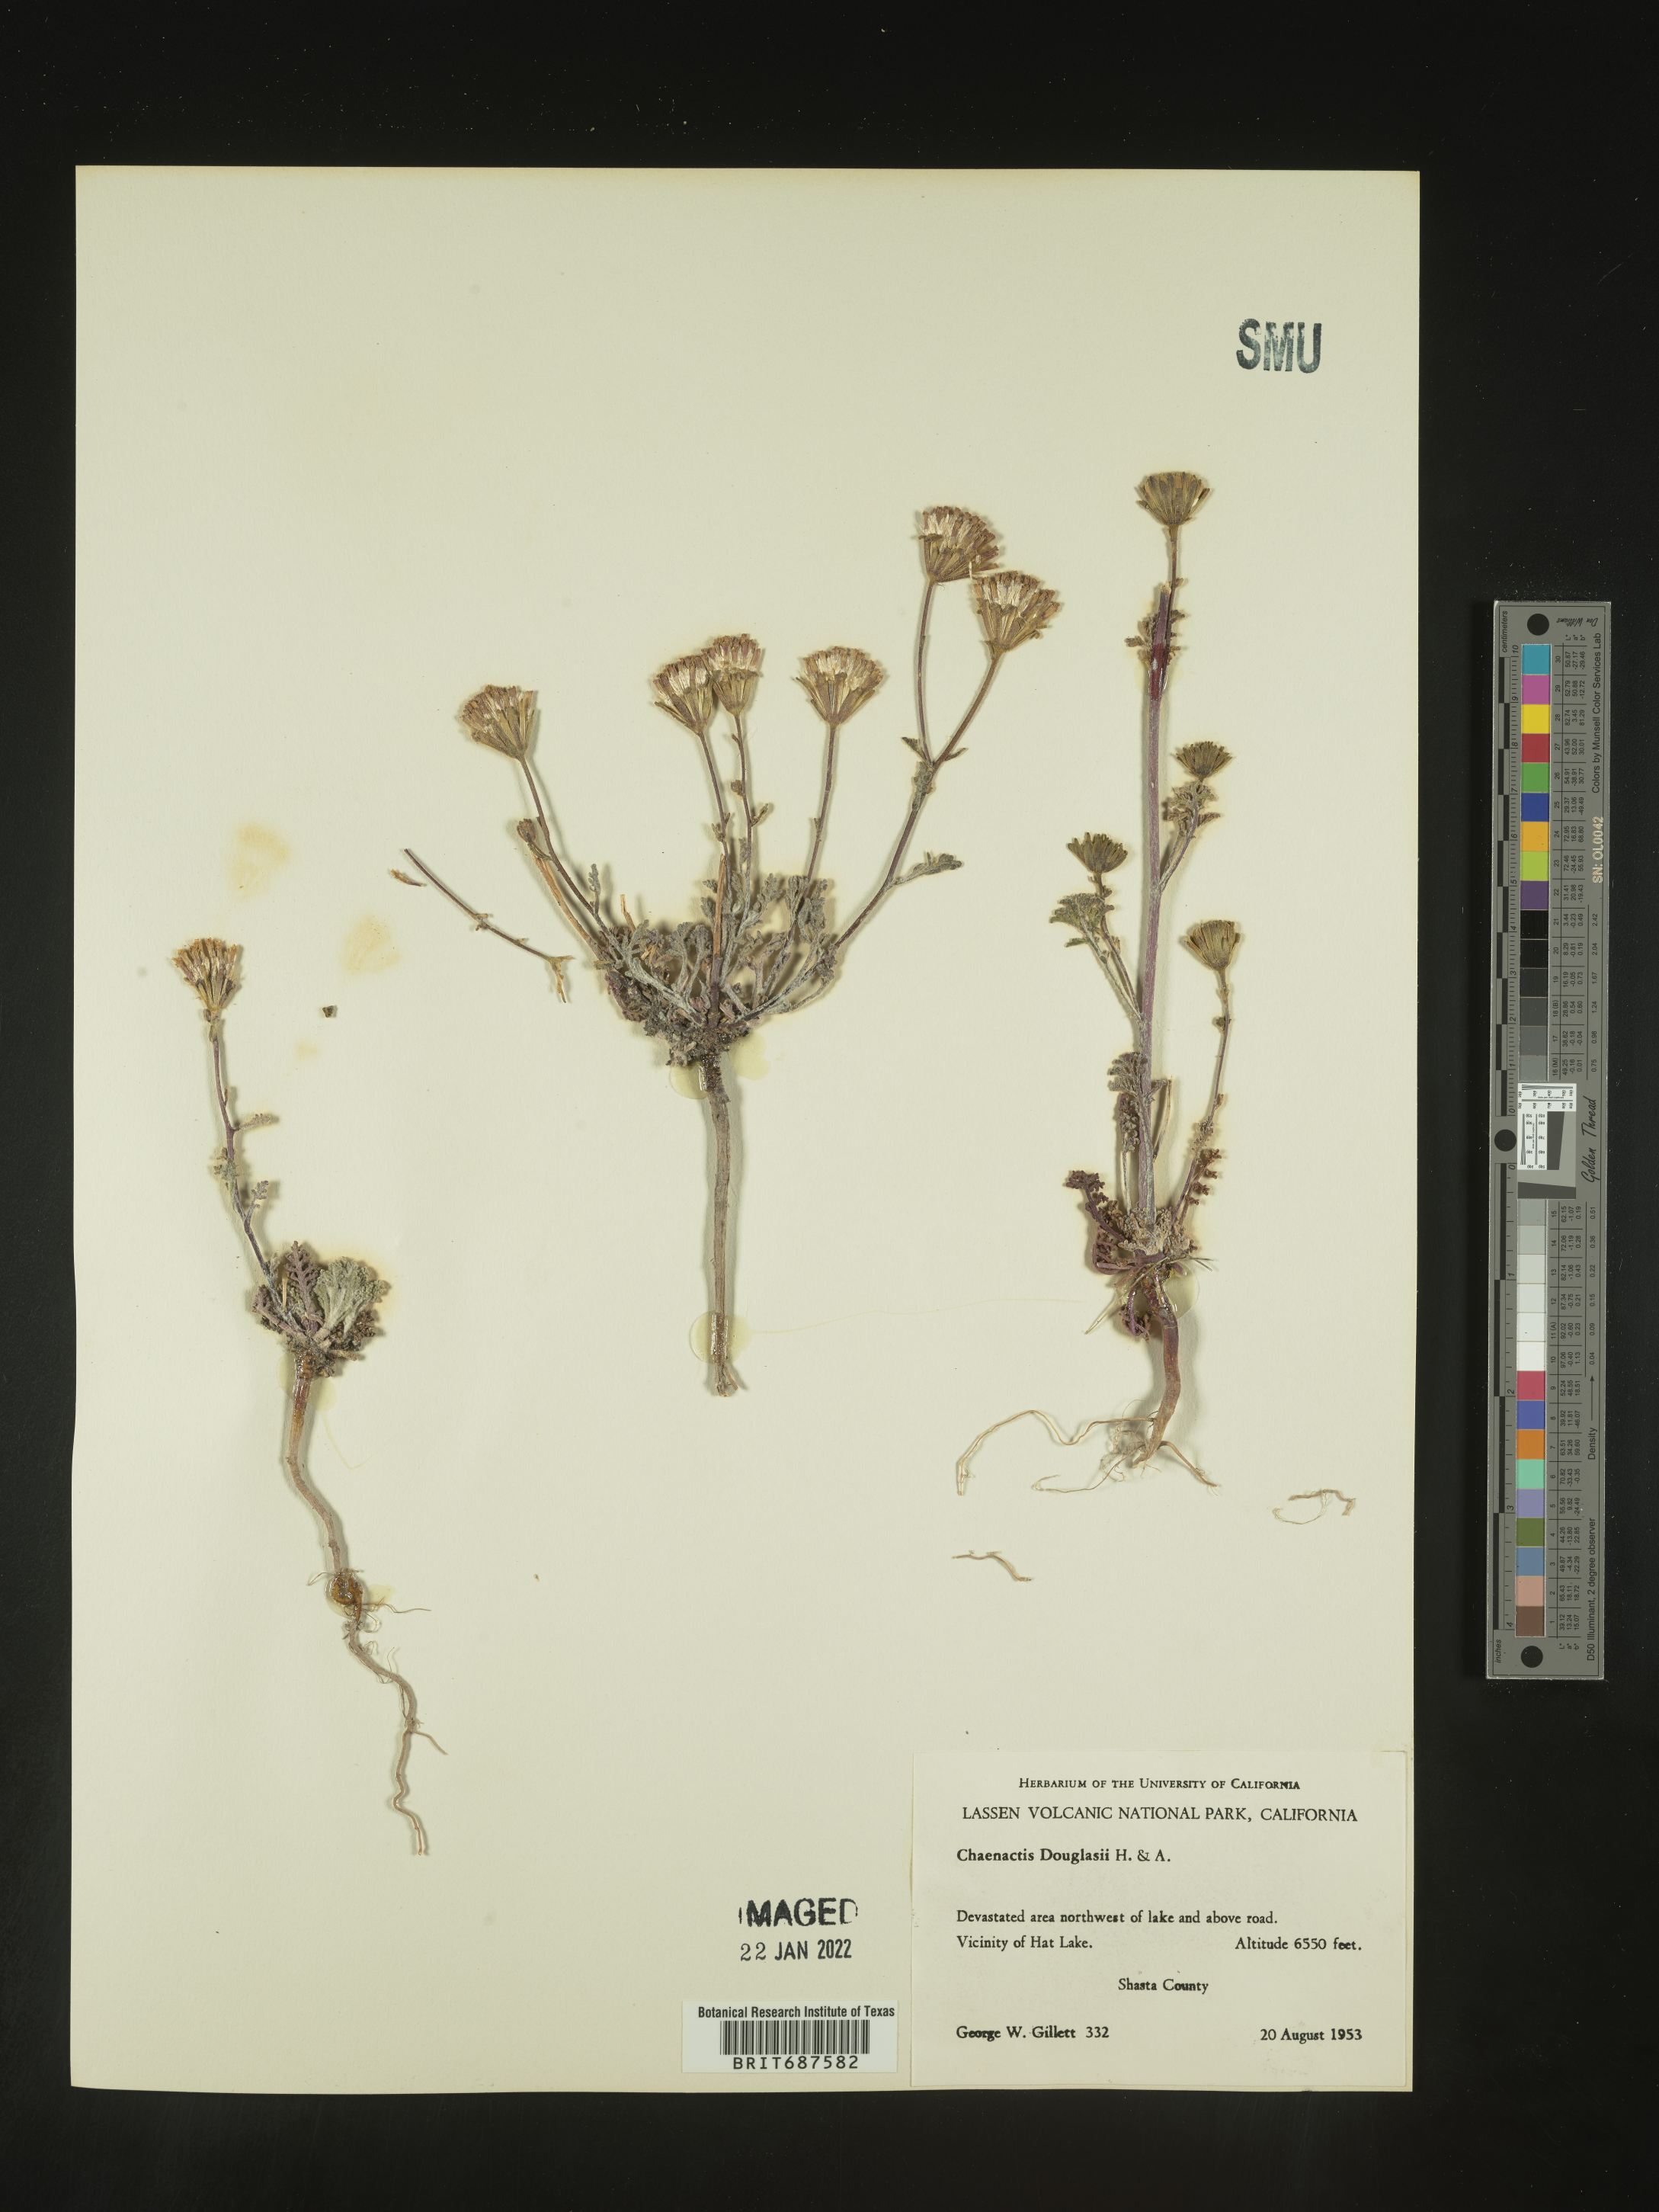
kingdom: Plantae
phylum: Tracheophyta
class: Magnoliopsida
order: Asterales
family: Asteraceae
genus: Chaenactis
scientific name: Chaenactis douglasii
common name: Hoary pincushion
